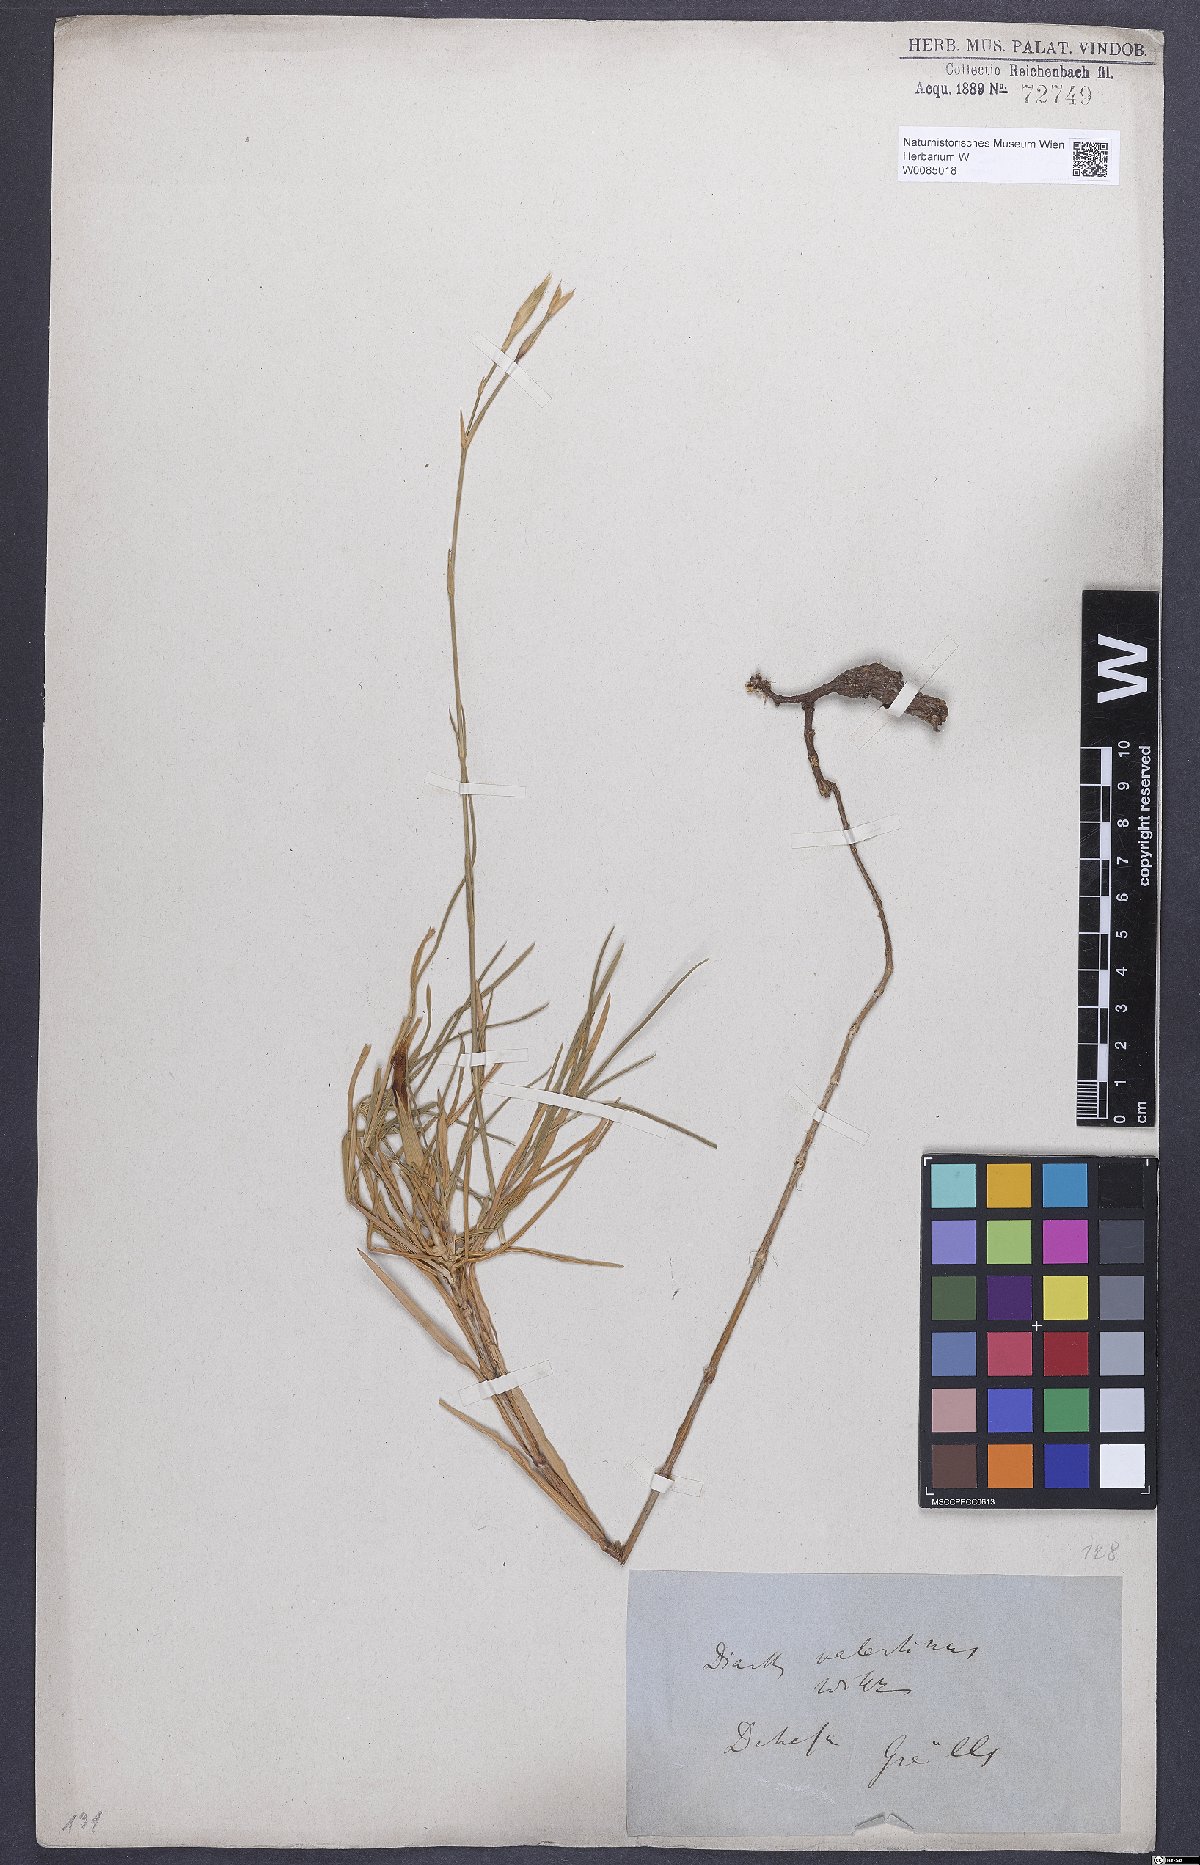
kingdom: Plantae
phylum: Tracheophyta
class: Magnoliopsida
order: Caryophyllales
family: Caryophyllaceae
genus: Dianthus
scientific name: Dianthus broteri
